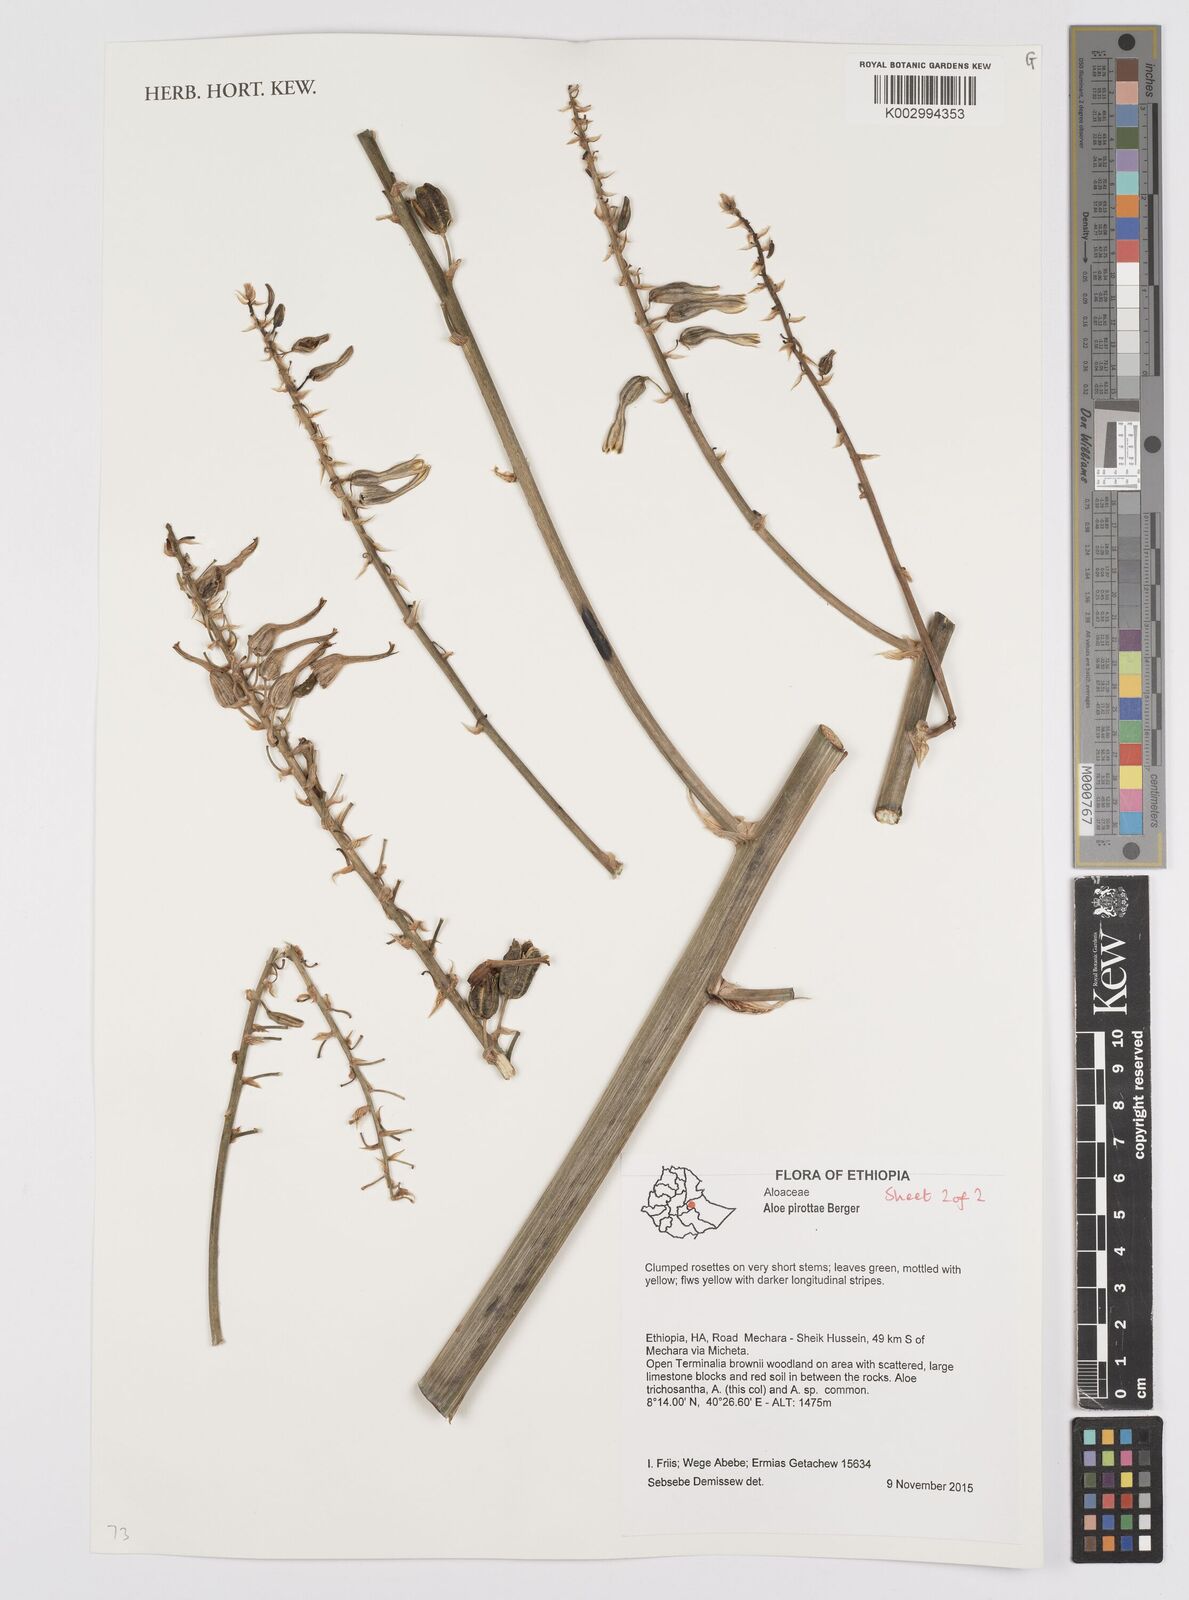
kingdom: Plantae
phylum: Tracheophyta
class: Liliopsida
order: Asparagales
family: Asphodelaceae
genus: Aloe
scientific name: Aloe pirottae
